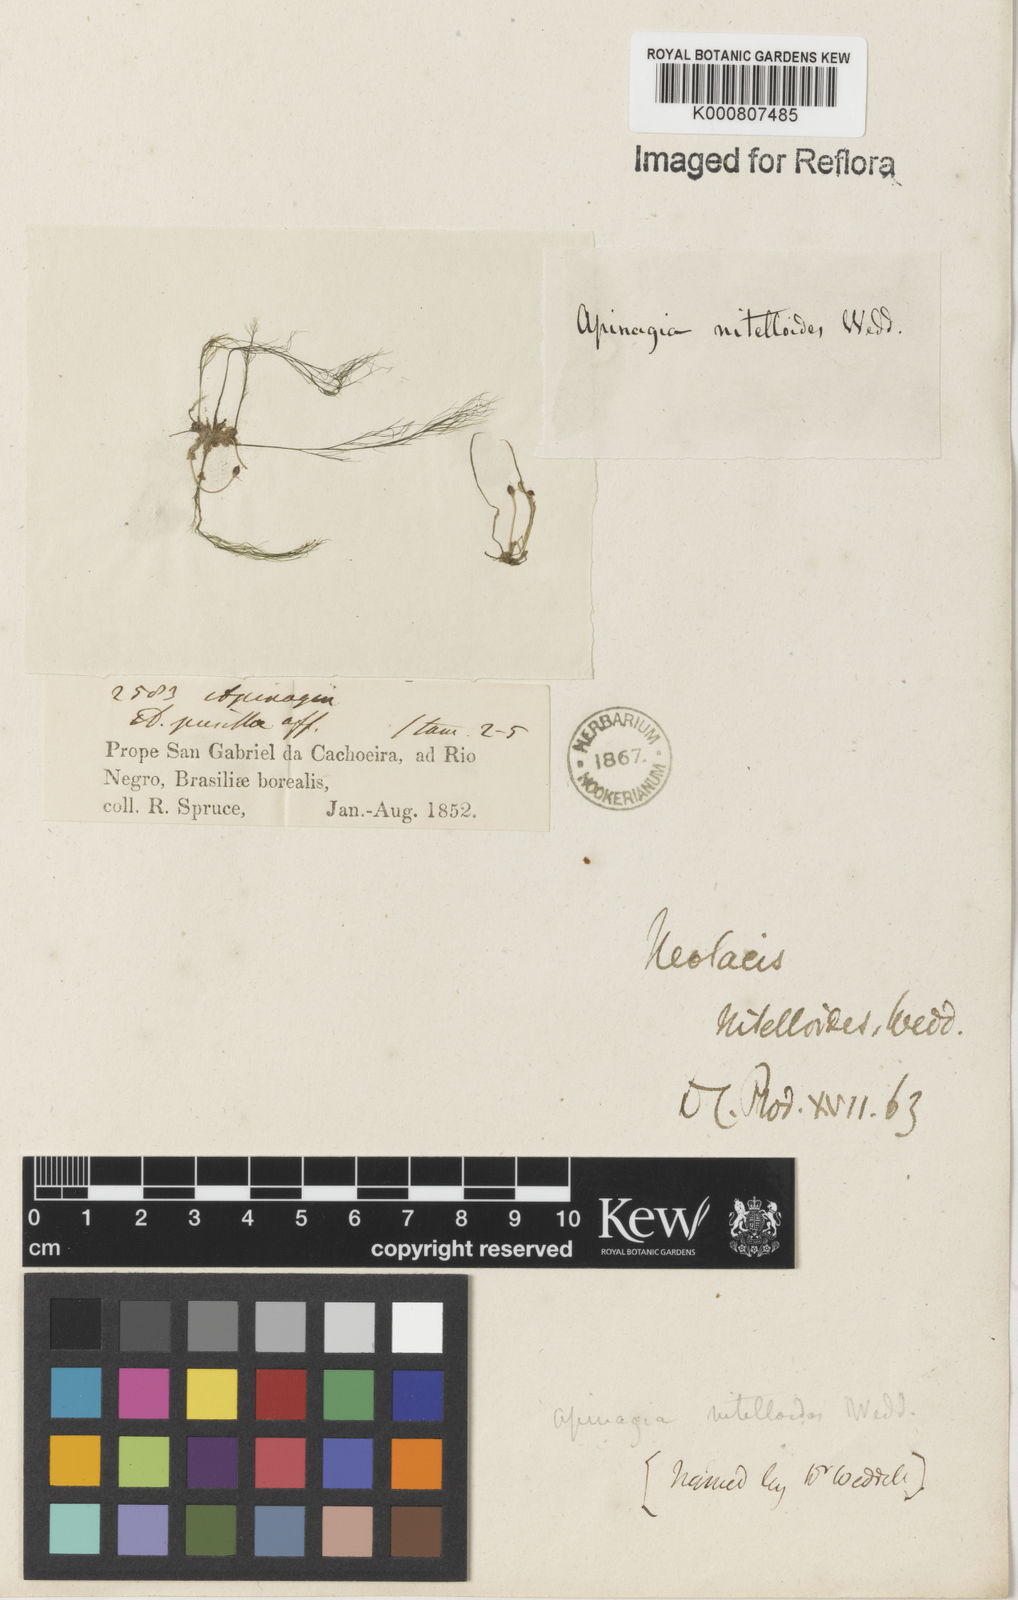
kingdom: Plantae
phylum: Tracheophyta
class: Magnoliopsida
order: Malpighiales
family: Podostemaceae
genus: Rhyncholacis
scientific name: Rhyncholacis nitelloides
